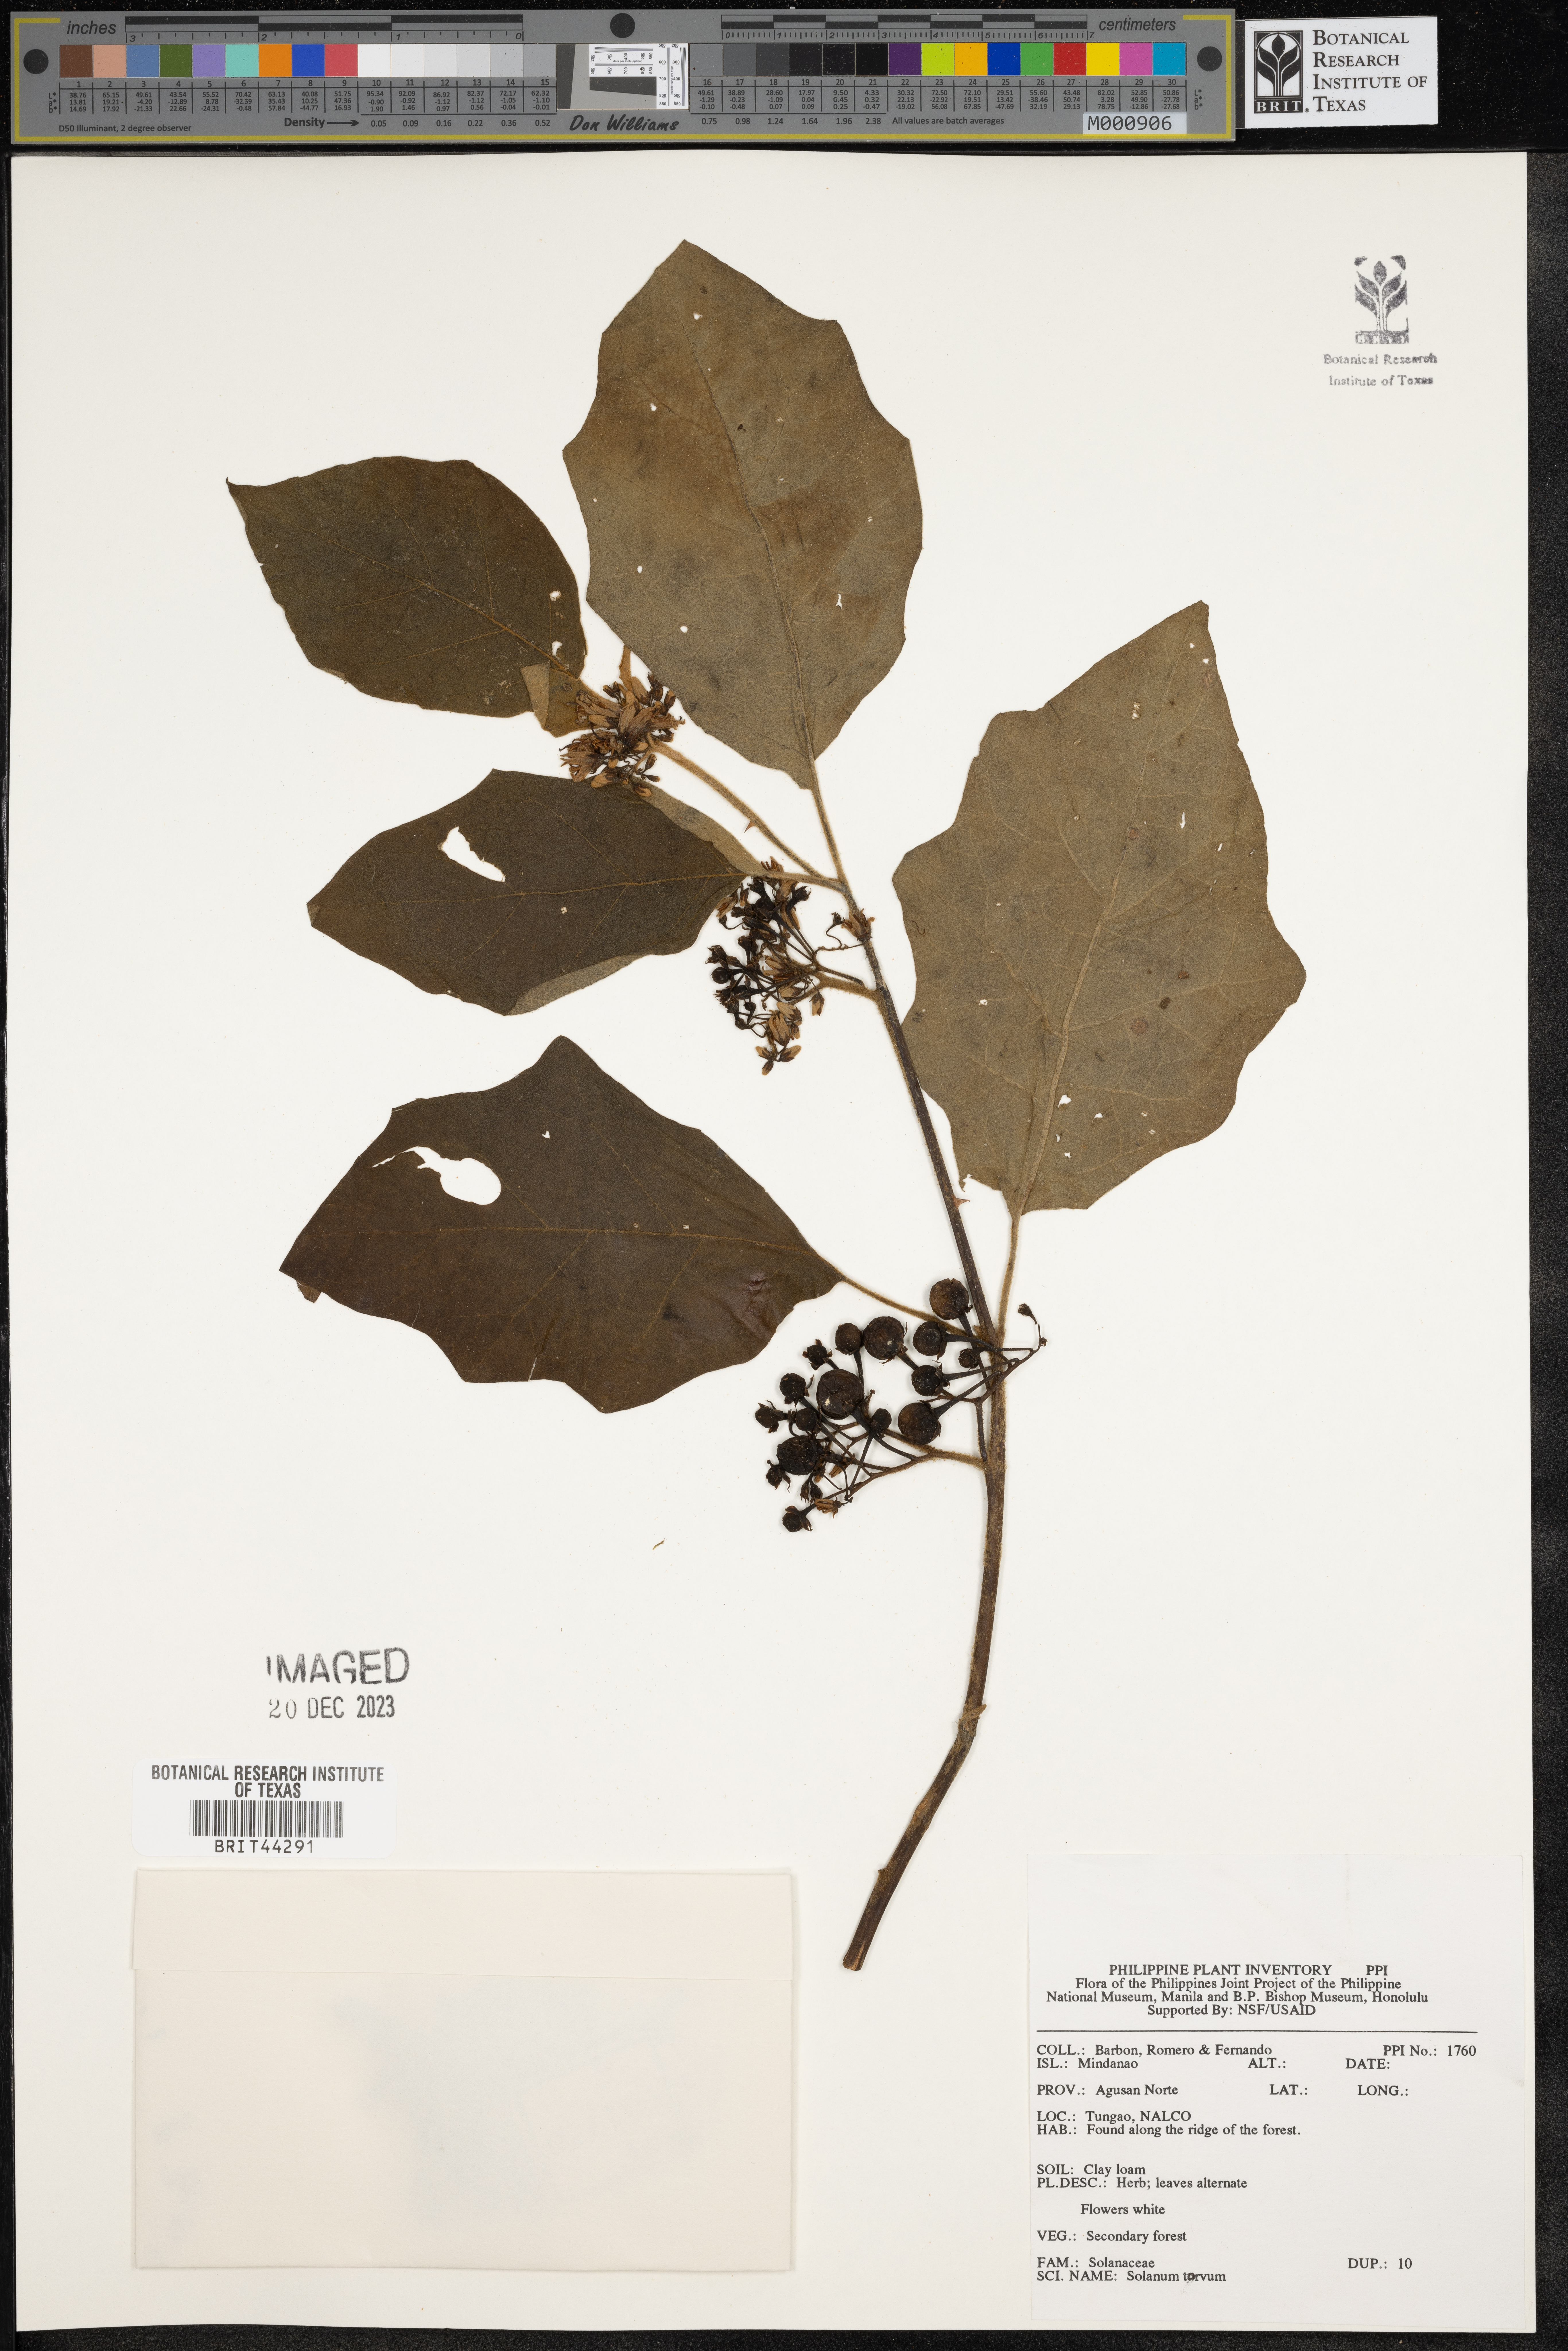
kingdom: Plantae
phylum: Tracheophyta
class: Magnoliopsida
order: Solanales
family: Solanaceae
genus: Solanum
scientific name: Solanum torvum
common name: Turkey berry
